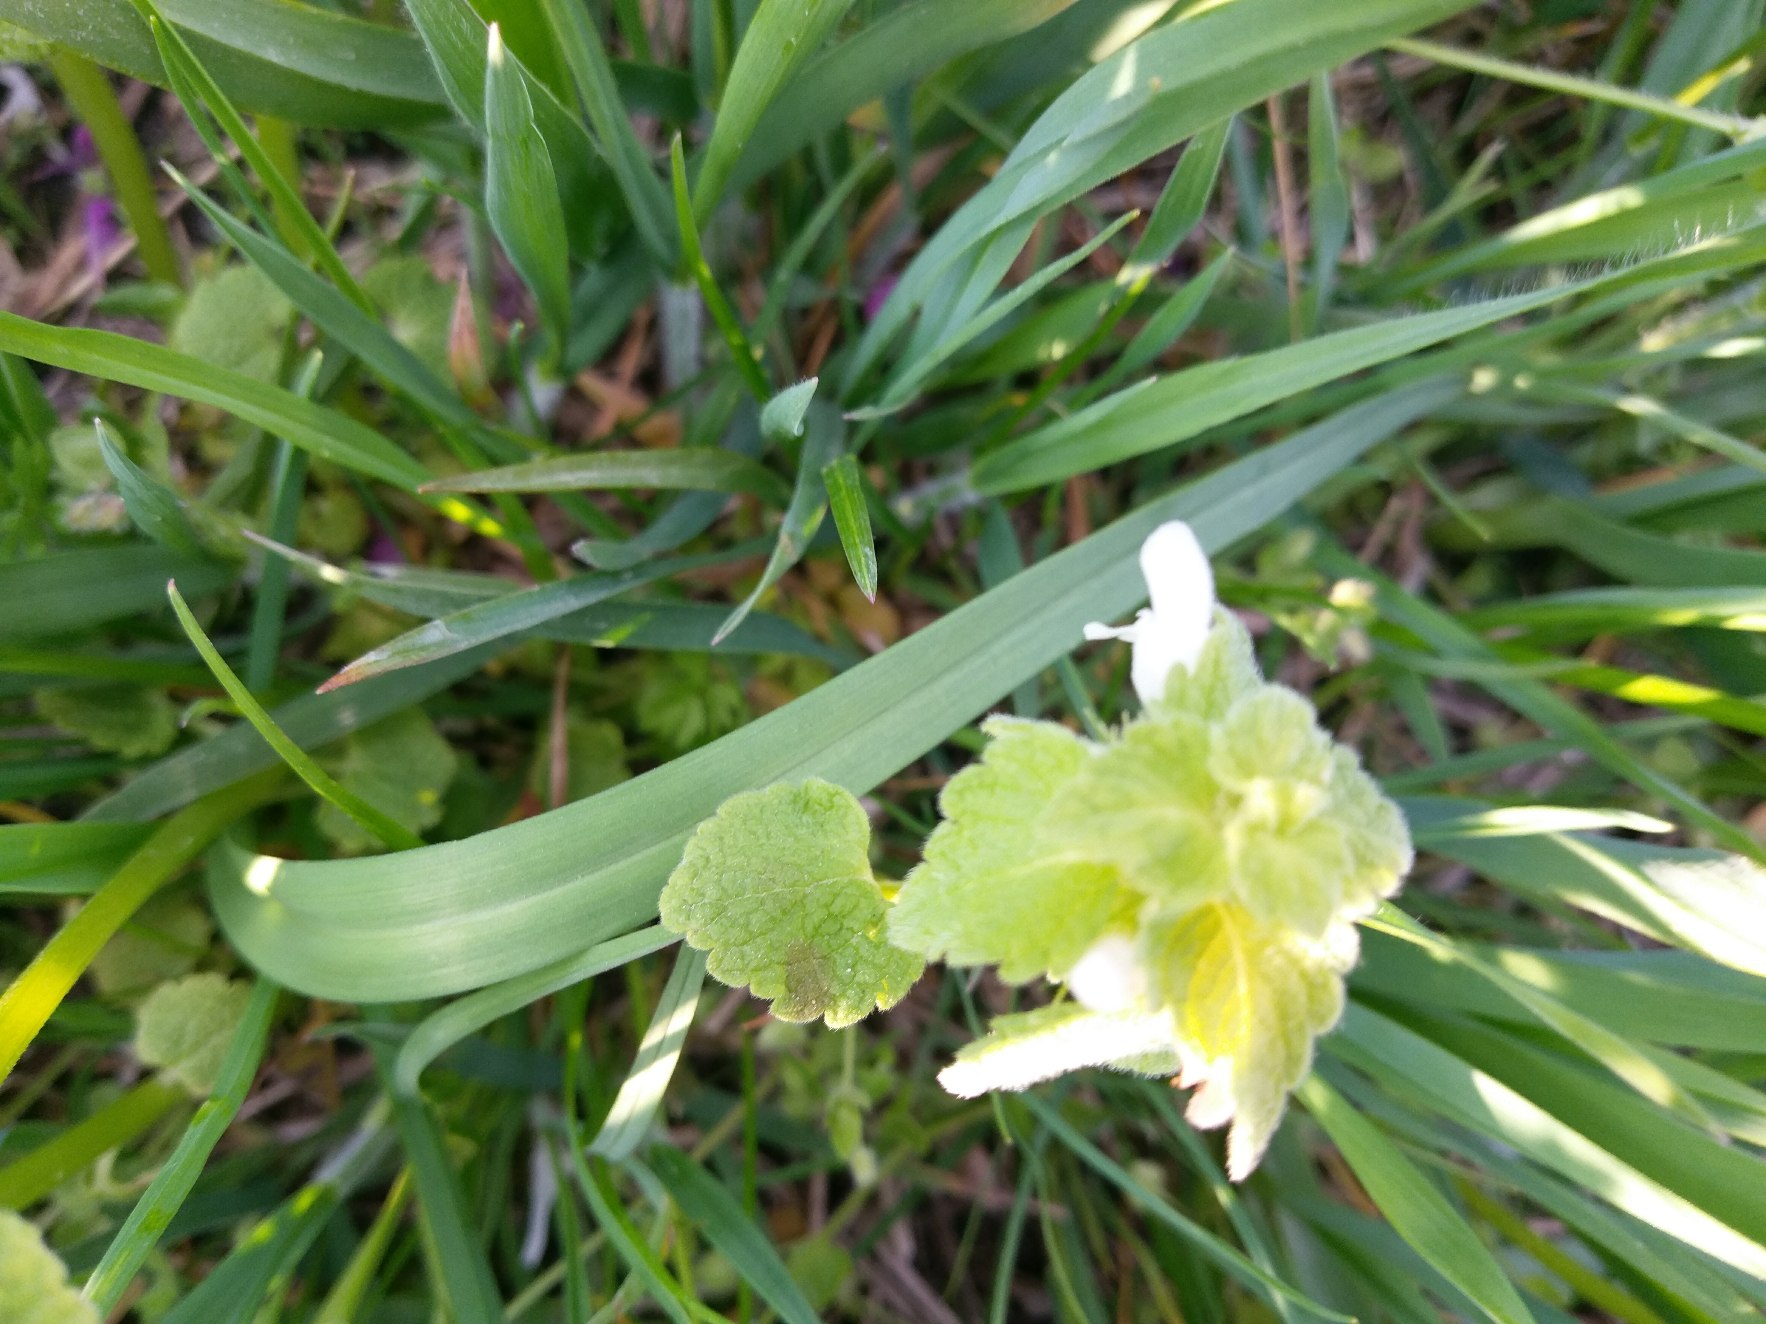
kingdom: Plantae
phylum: Tracheophyta
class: Magnoliopsida
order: Lamiales
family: Lamiaceae
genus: Lamium
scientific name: Lamium purpureum
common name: Rød tvetand
